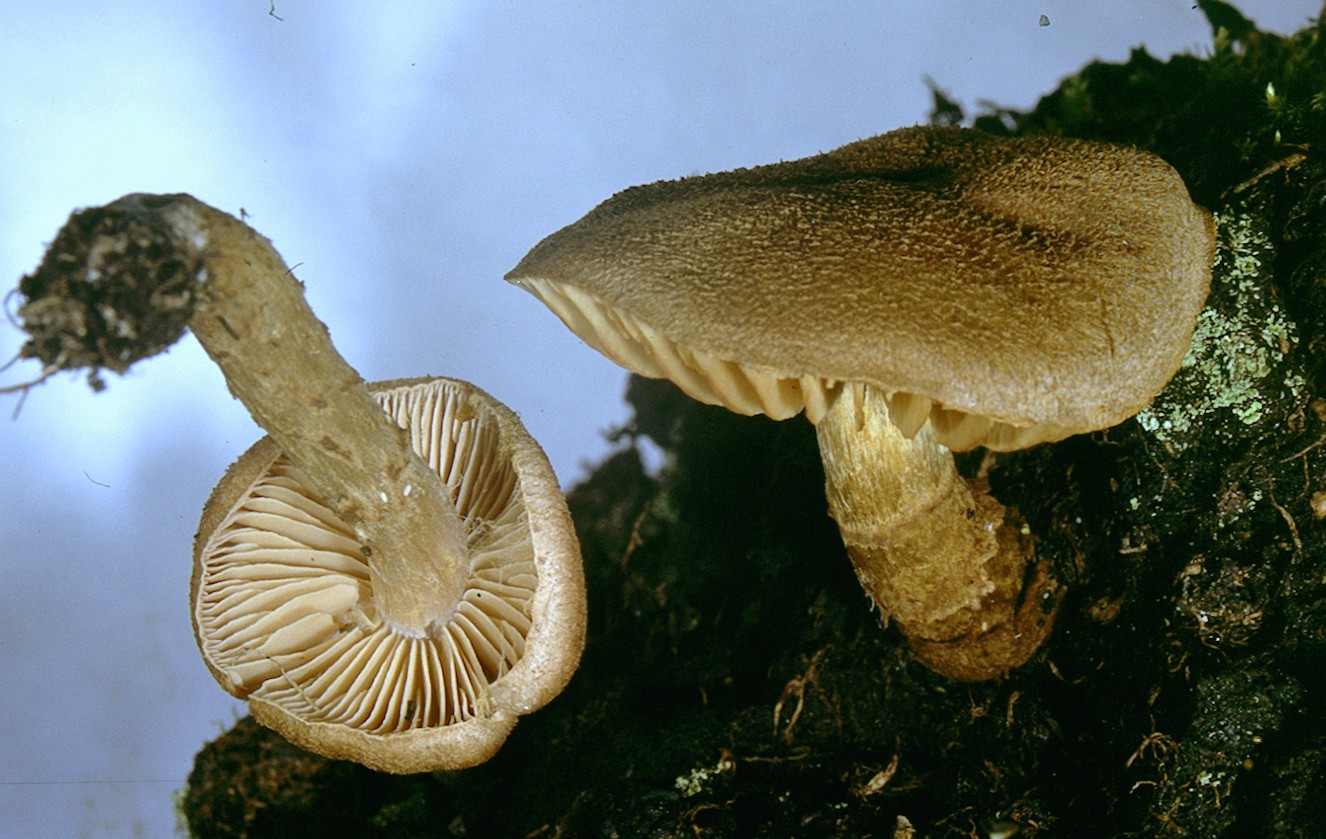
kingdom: Fungi
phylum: Basidiomycota
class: Agaricomycetes
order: Agaricales
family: Cortinariaceae
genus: Cortinarius
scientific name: Cortinarius pholideus
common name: brunskællet slørhat
